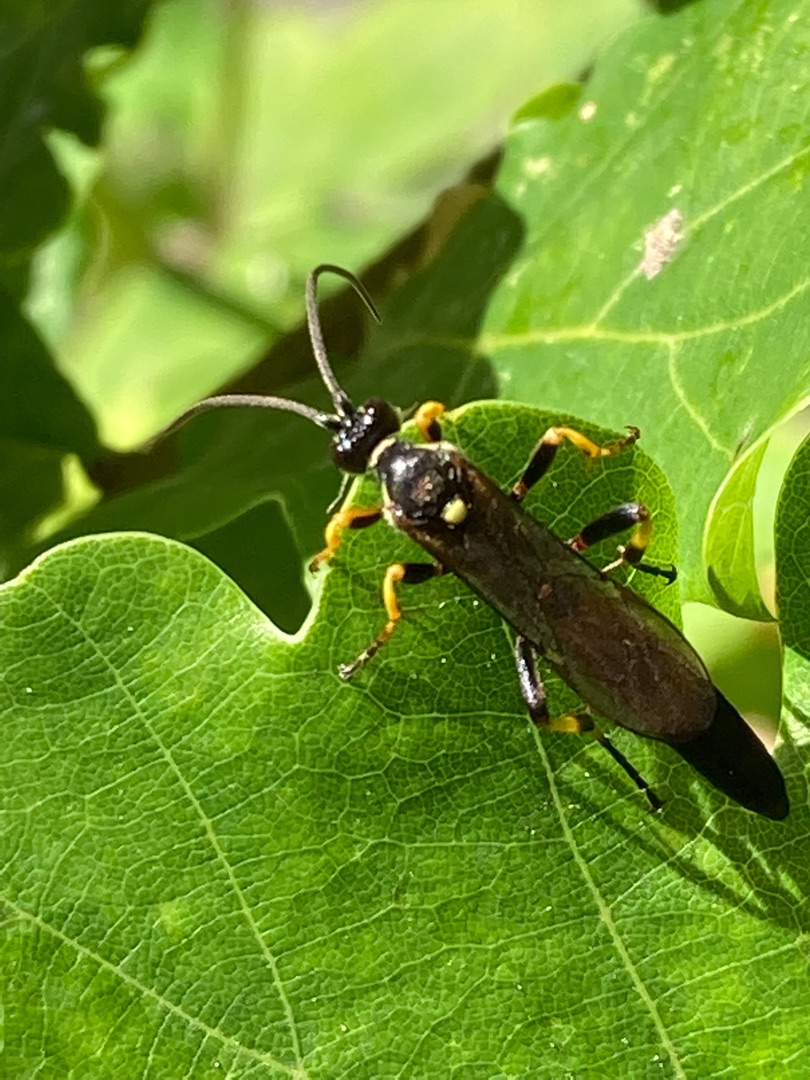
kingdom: Animalia
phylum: Arthropoda
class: Insecta
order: Hymenoptera
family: Ichneumonidae
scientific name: Ichneumonidae
